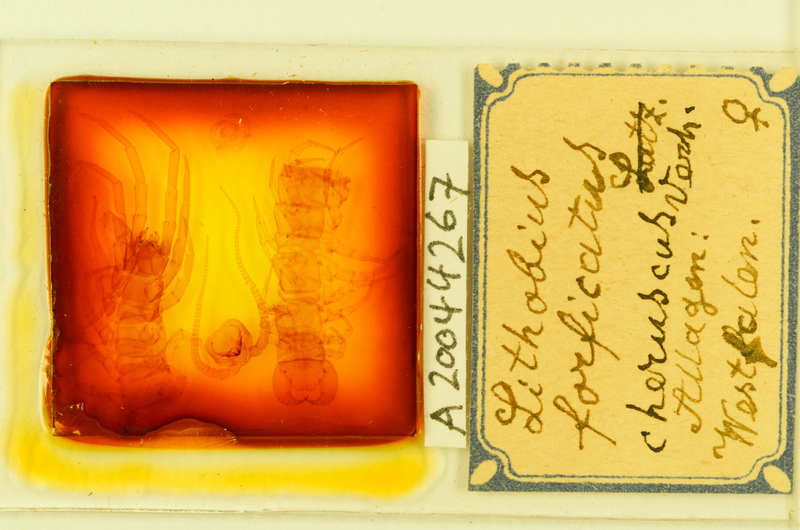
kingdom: Animalia
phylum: Arthropoda
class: Chilopoda
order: Lithobiomorpha
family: Lithobiidae
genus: Lithobius
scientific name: Lithobius forficatus
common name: Centipede
